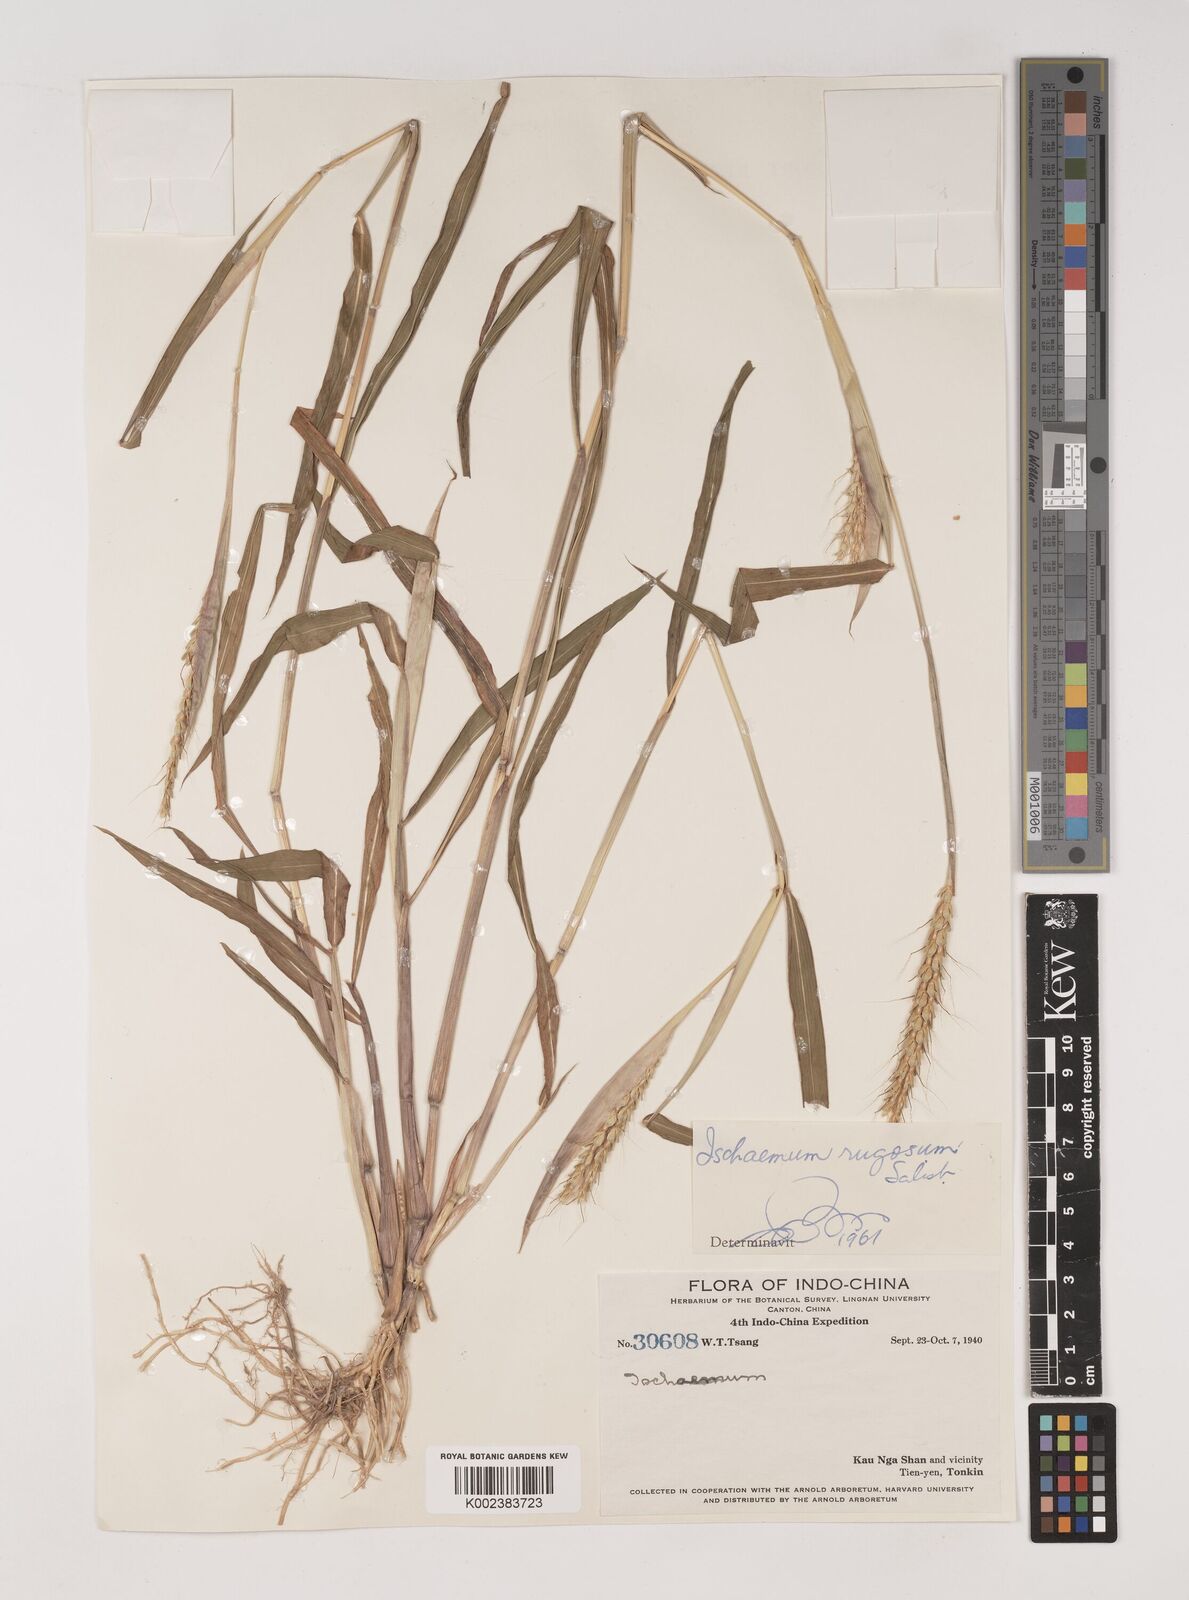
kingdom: Plantae
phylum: Tracheophyta
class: Liliopsida
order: Poales
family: Poaceae
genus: Ischaemum
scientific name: Ischaemum rugosum
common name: Saramatta grass
